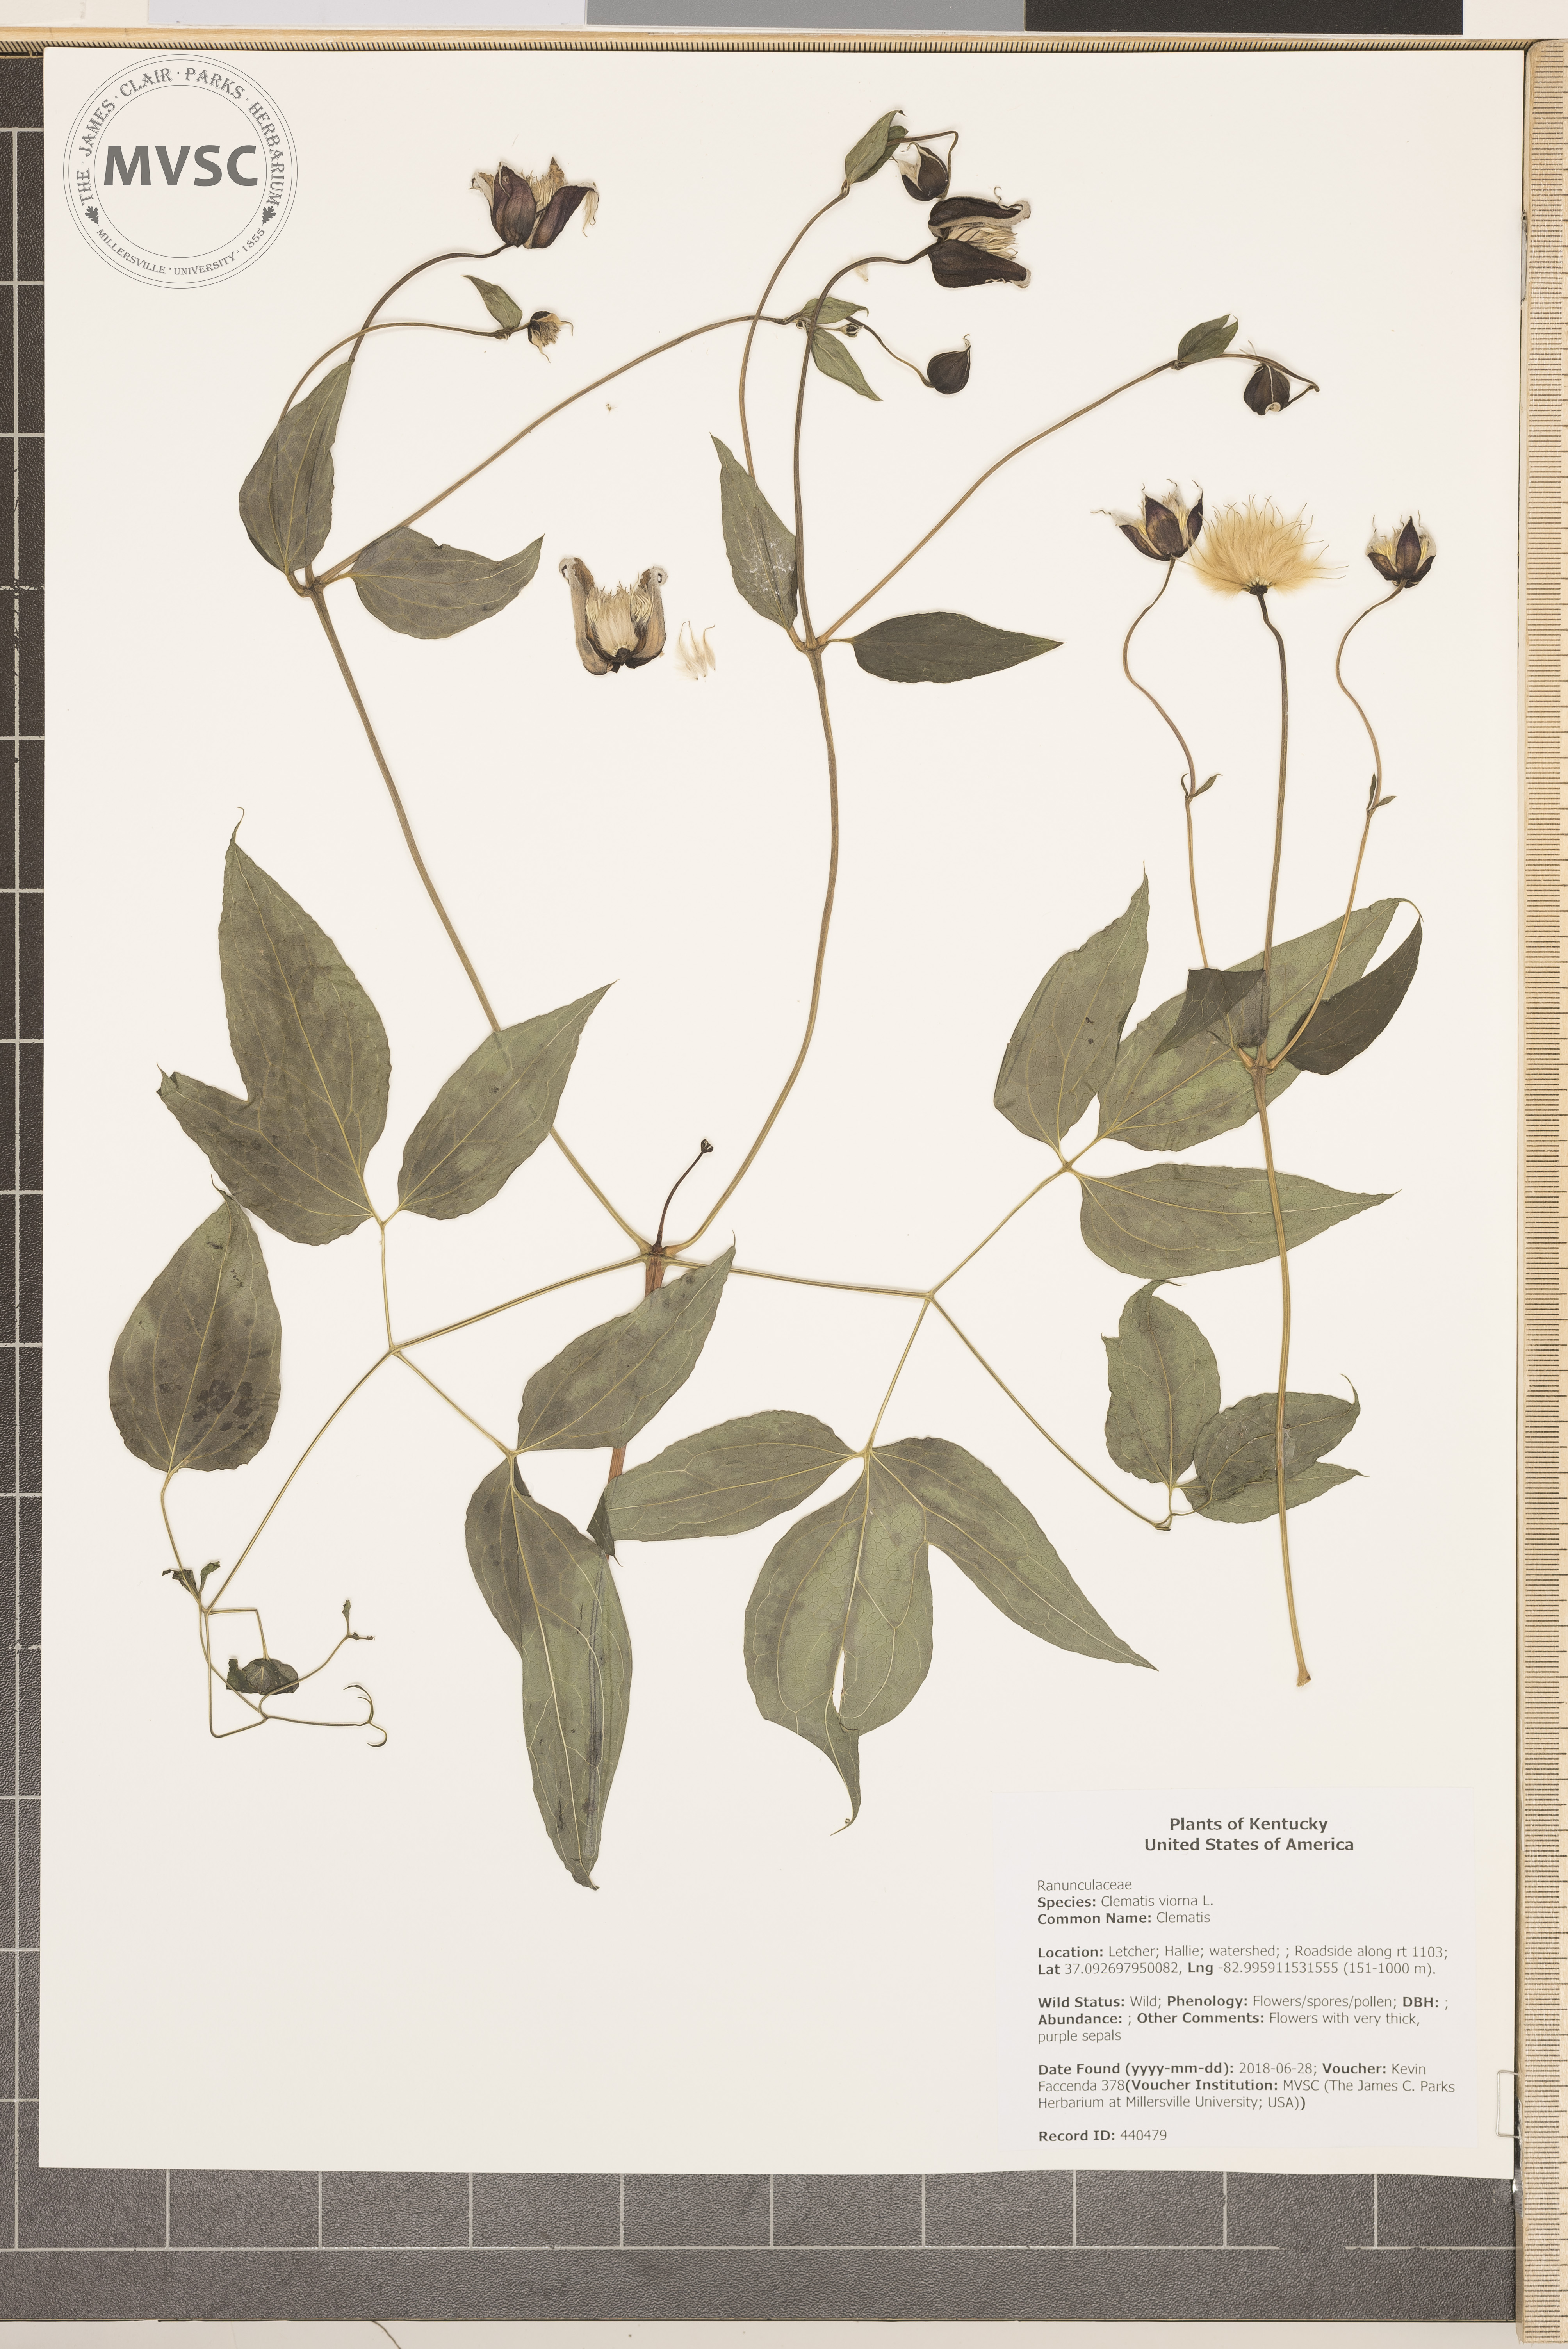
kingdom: Plantae
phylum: Tracheophyta
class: Magnoliopsida
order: Ranunculales
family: Ranunculaceae
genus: Clematis
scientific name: Clematis viorna
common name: Clematis
